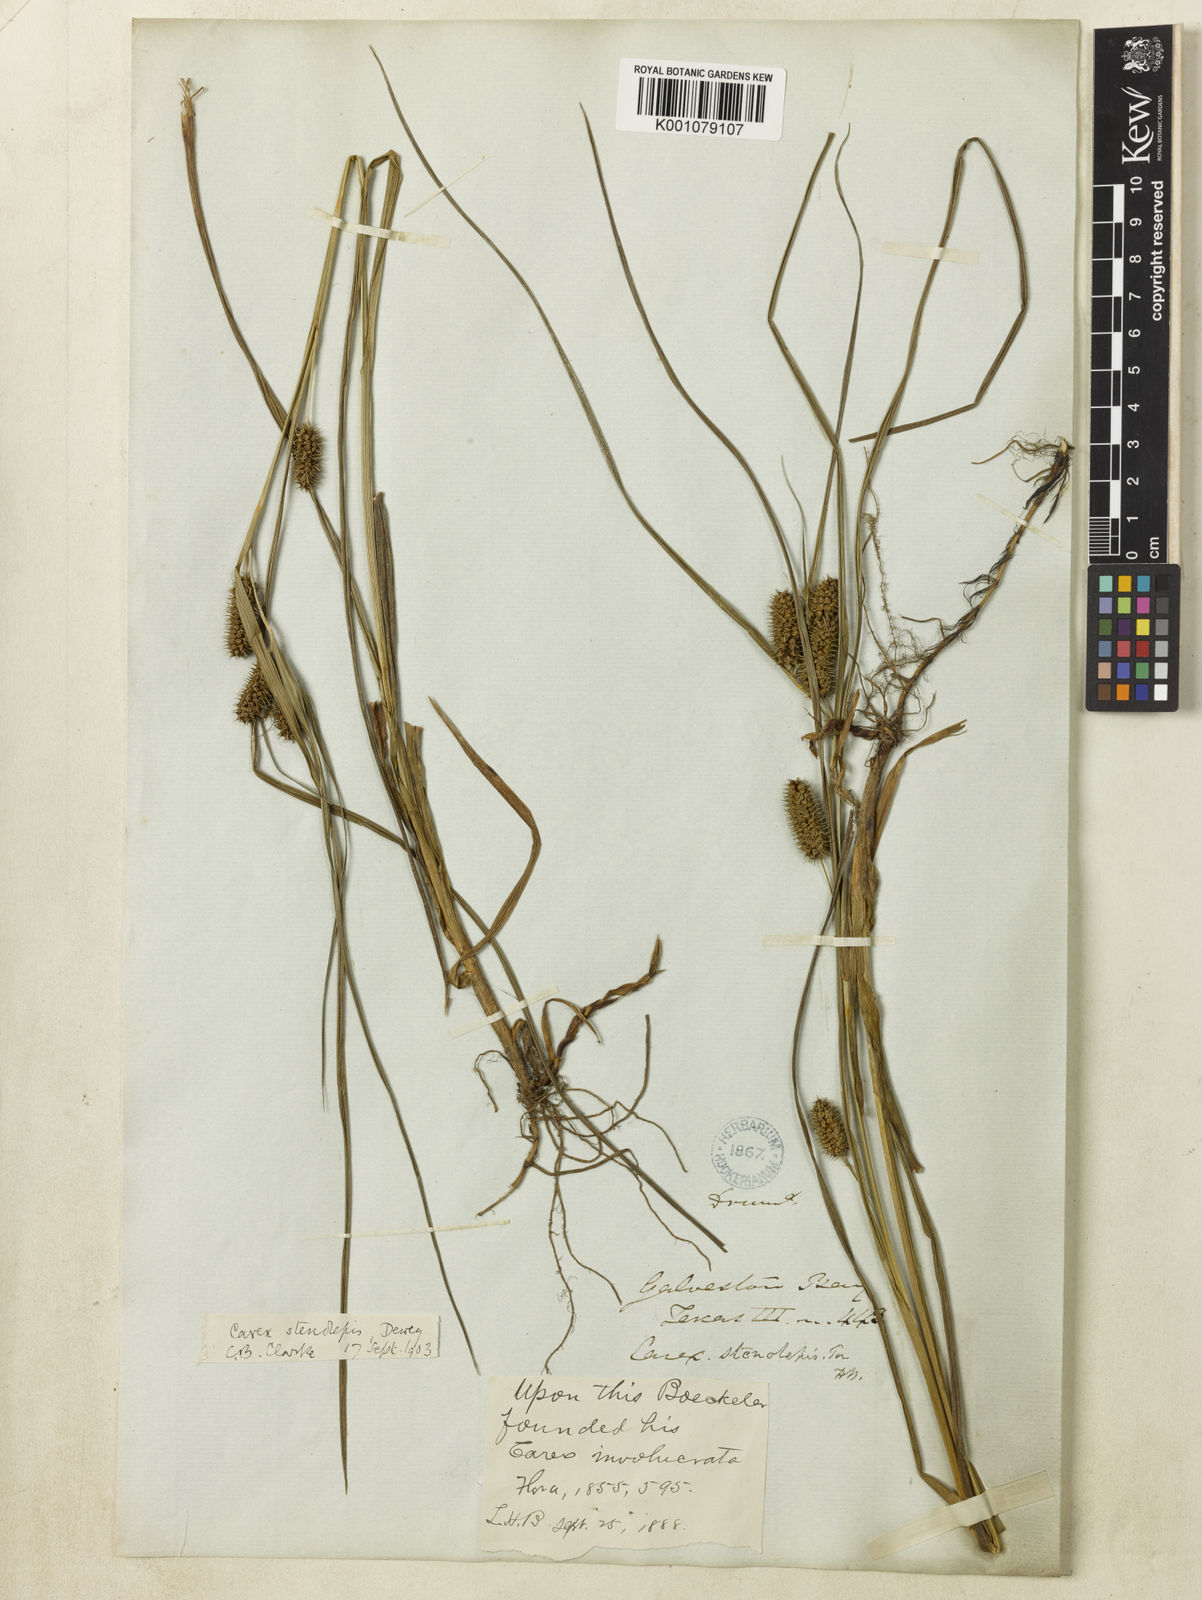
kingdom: Plantae
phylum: Tracheophyta
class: Liliopsida
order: Poales
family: Cyperaceae
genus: Carex
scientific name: Carex frankii
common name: Frank's sedge
